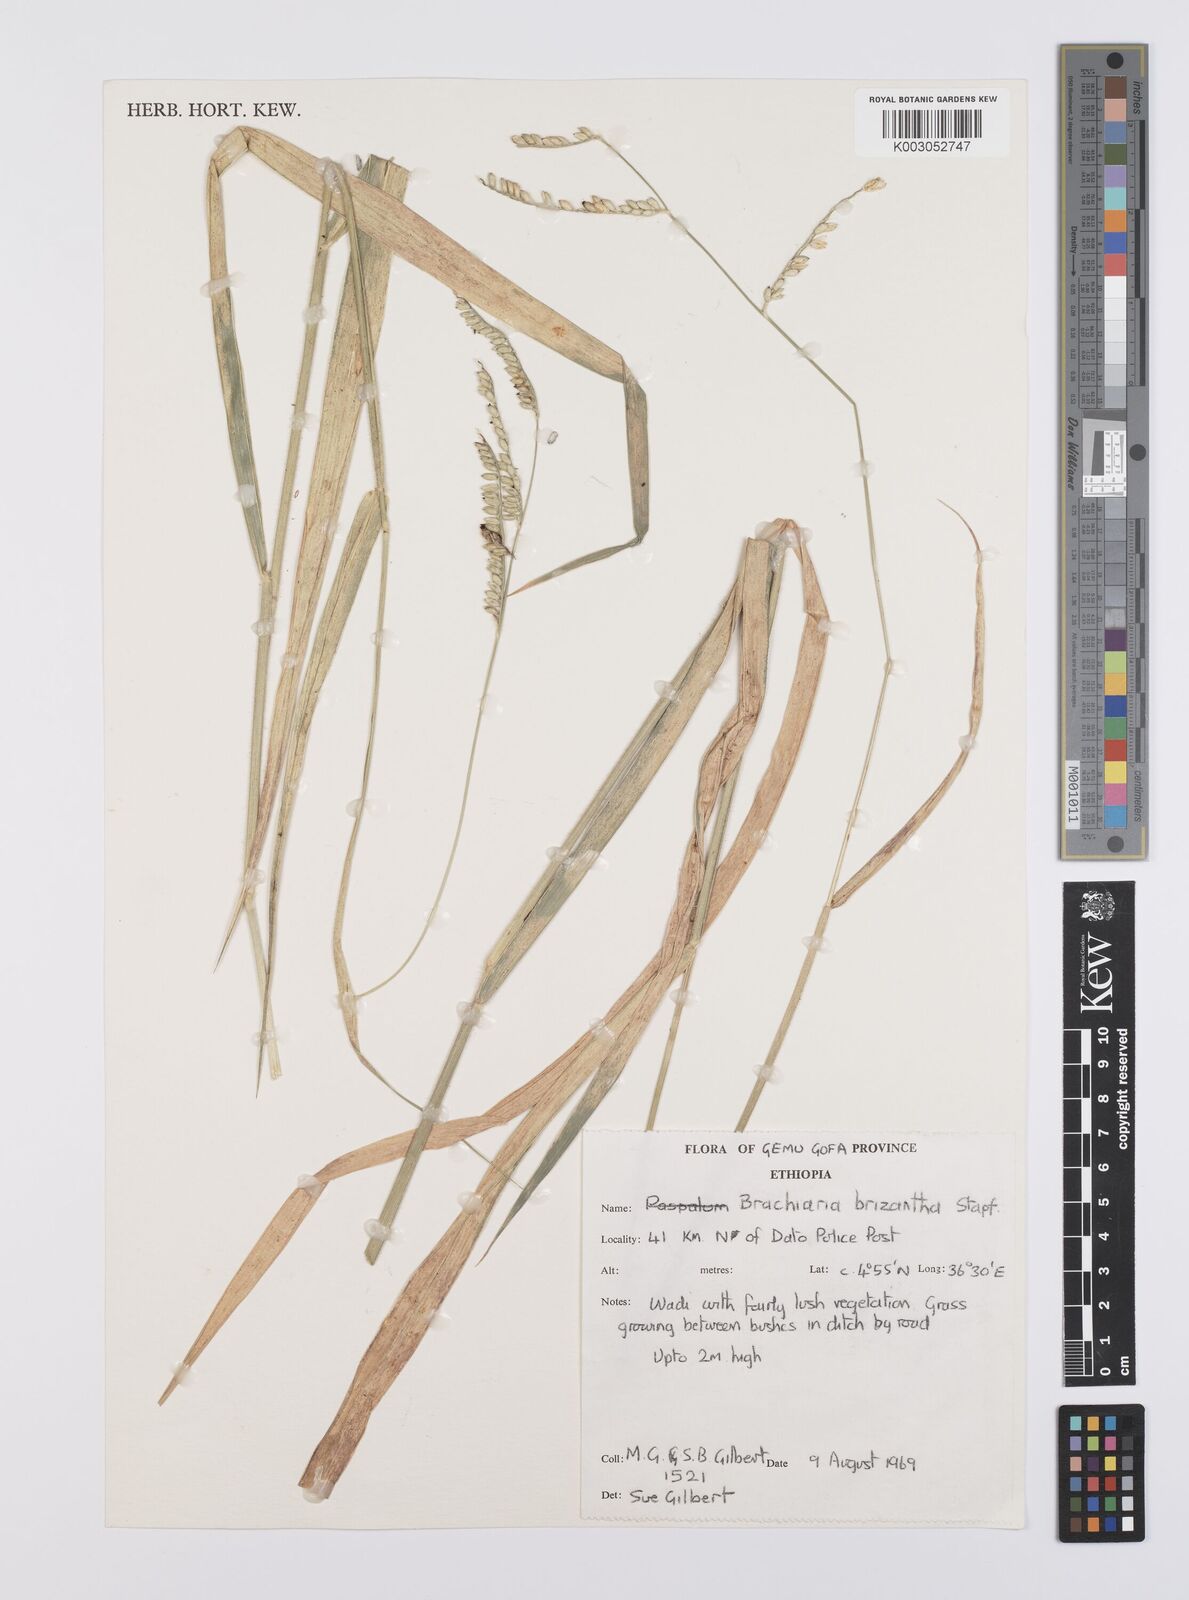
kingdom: Plantae
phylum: Tracheophyta
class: Liliopsida
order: Poales
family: Poaceae
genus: Urochloa
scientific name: Urochloa brizantha
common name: Palisade signalgrass
